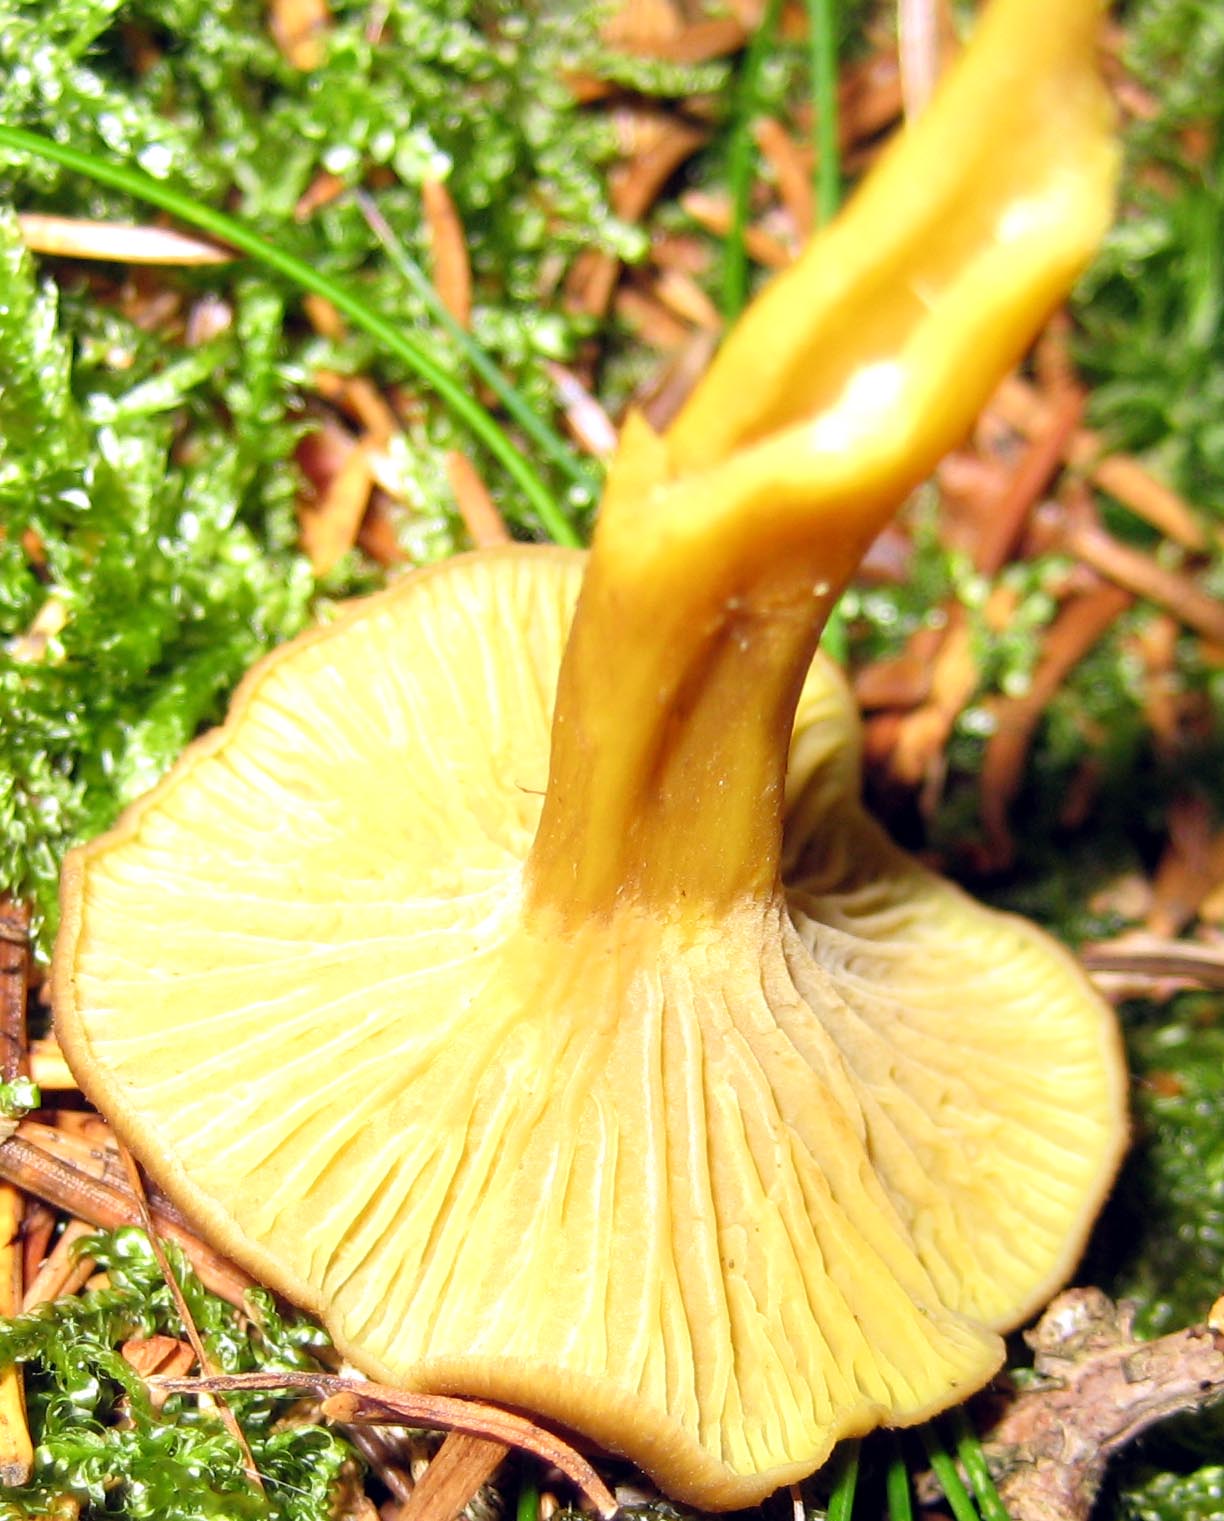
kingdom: Fungi
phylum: Basidiomycota
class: Agaricomycetes
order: Cantharellales
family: Hydnaceae
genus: Craterellus
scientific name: Craterellus tubaeformis
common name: tragt-kantarel
